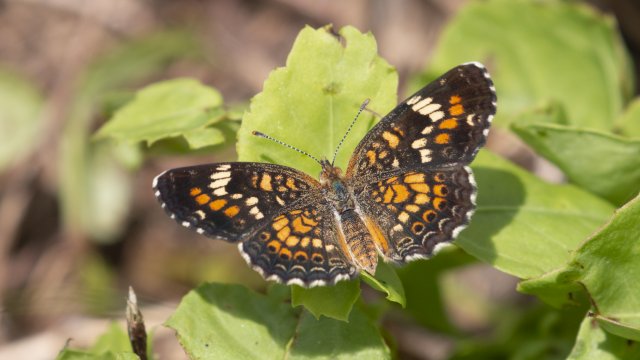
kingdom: Animalia
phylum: Arthropoda
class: Insecta
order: Lepidoptera
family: Nymphalidae
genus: Phyciodes
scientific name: Phyciodes phaon
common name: Phaon Crescent
